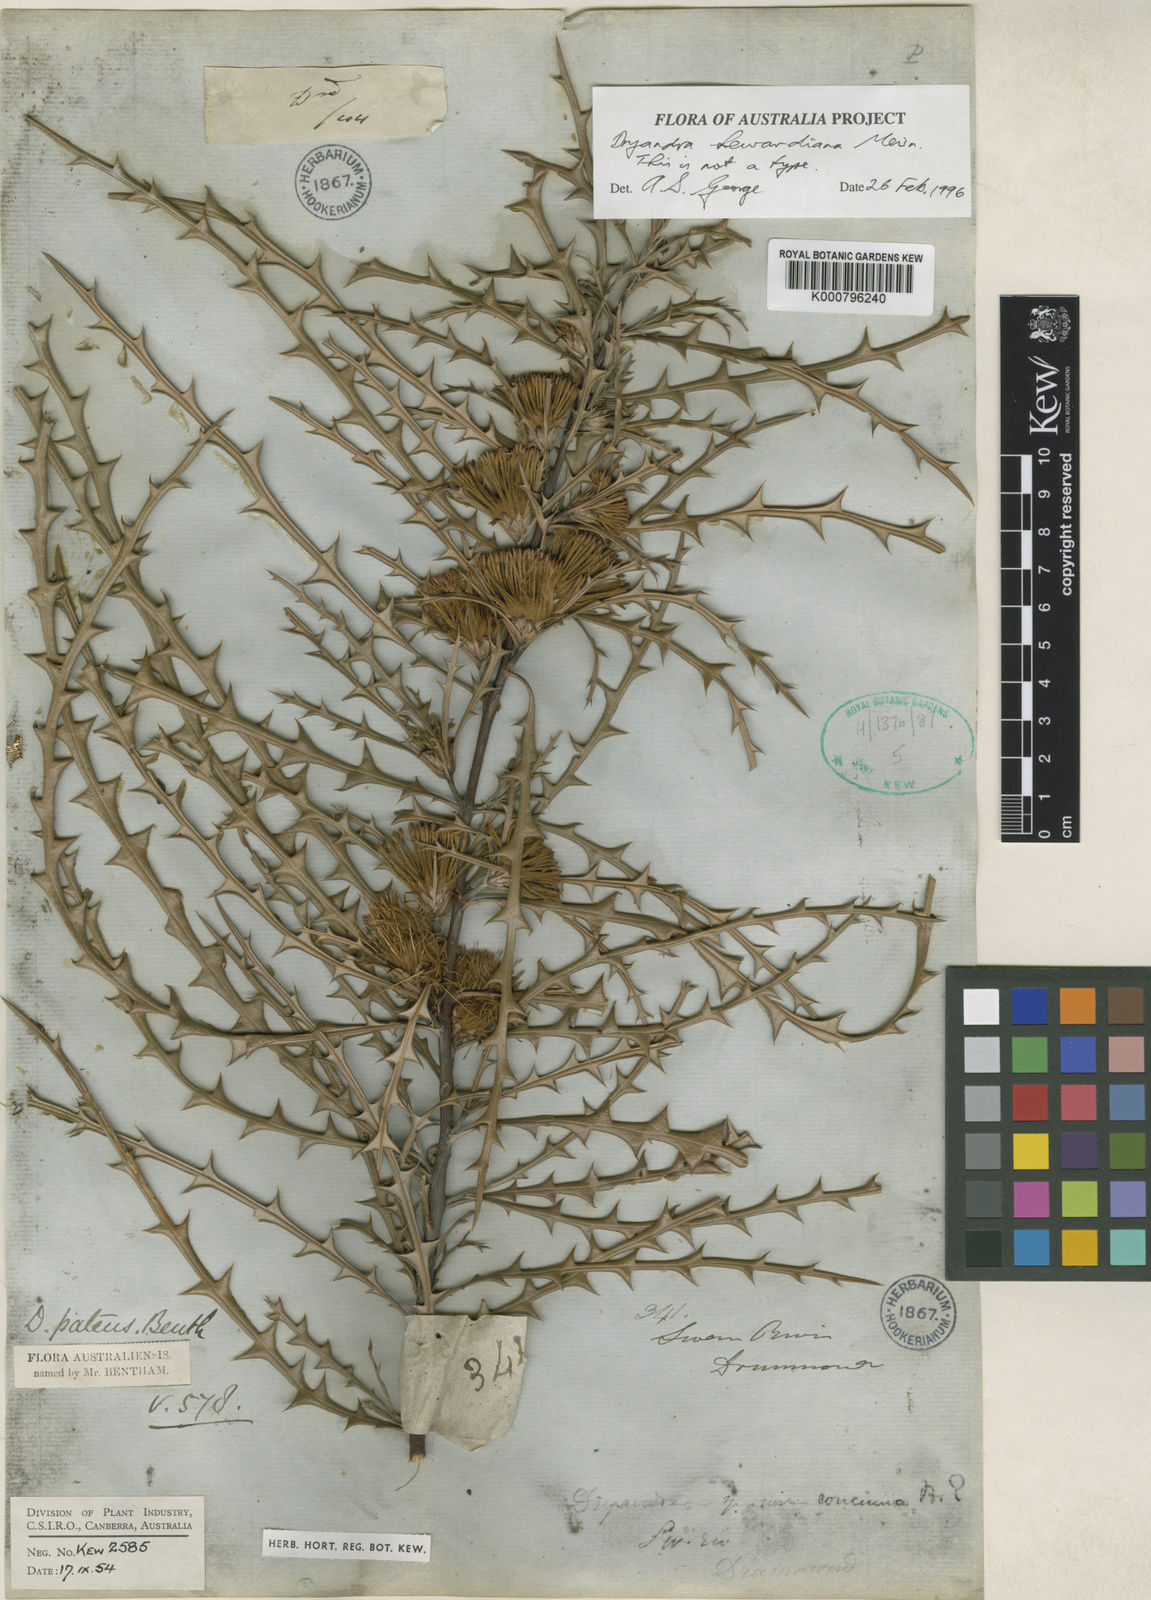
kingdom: Plantae
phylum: Tracheophyta
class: Magnoliopsida
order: Proteales
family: Proteaceae
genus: Banksia
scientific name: Banksia hewardiana
